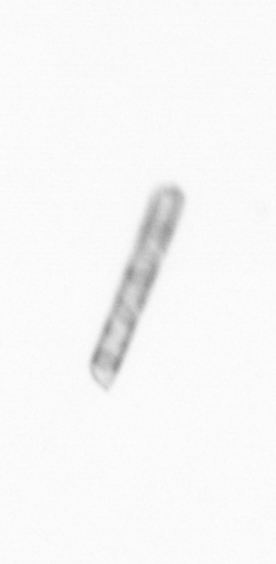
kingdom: Chromista
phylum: Ochrophyta
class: Bacillariophyceae
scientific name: Bacillariophyceae
